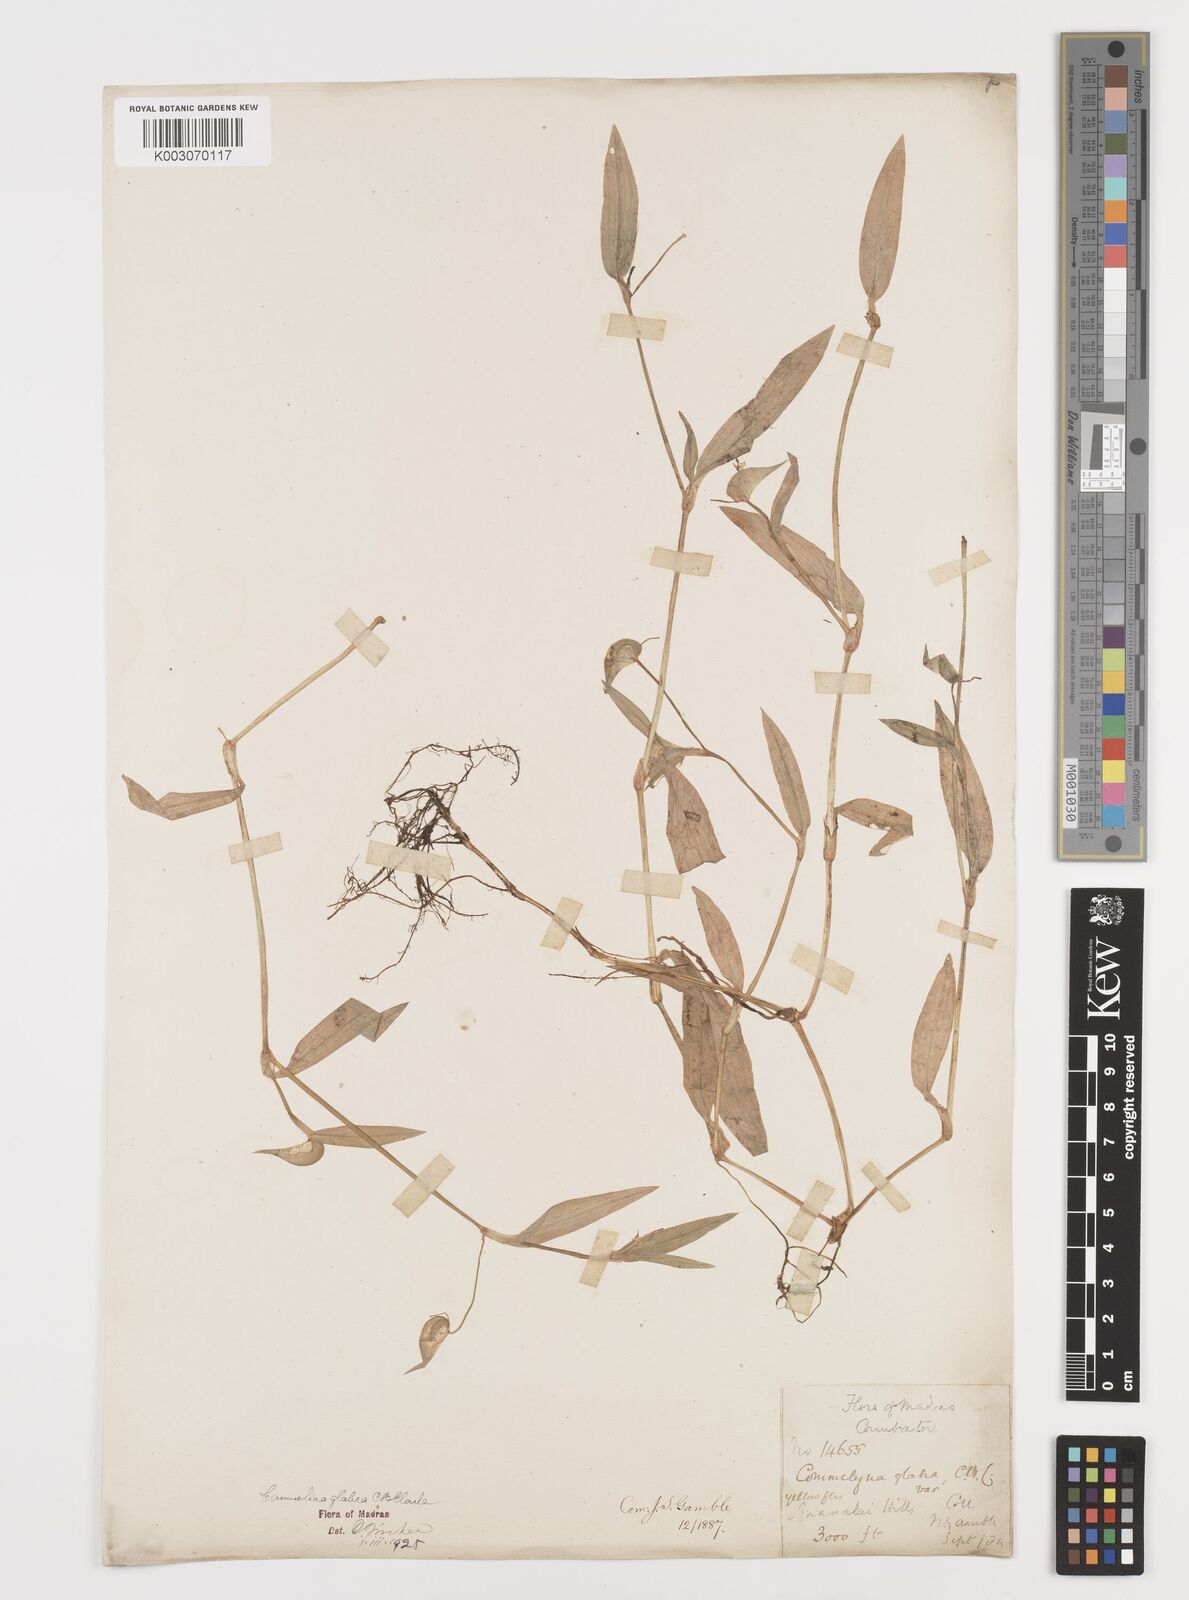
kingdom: Plantae
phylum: Tracheophyta
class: Liliopsida
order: Commelinales
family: Commelinaceae
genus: Commelina
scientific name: Commelina wightii
